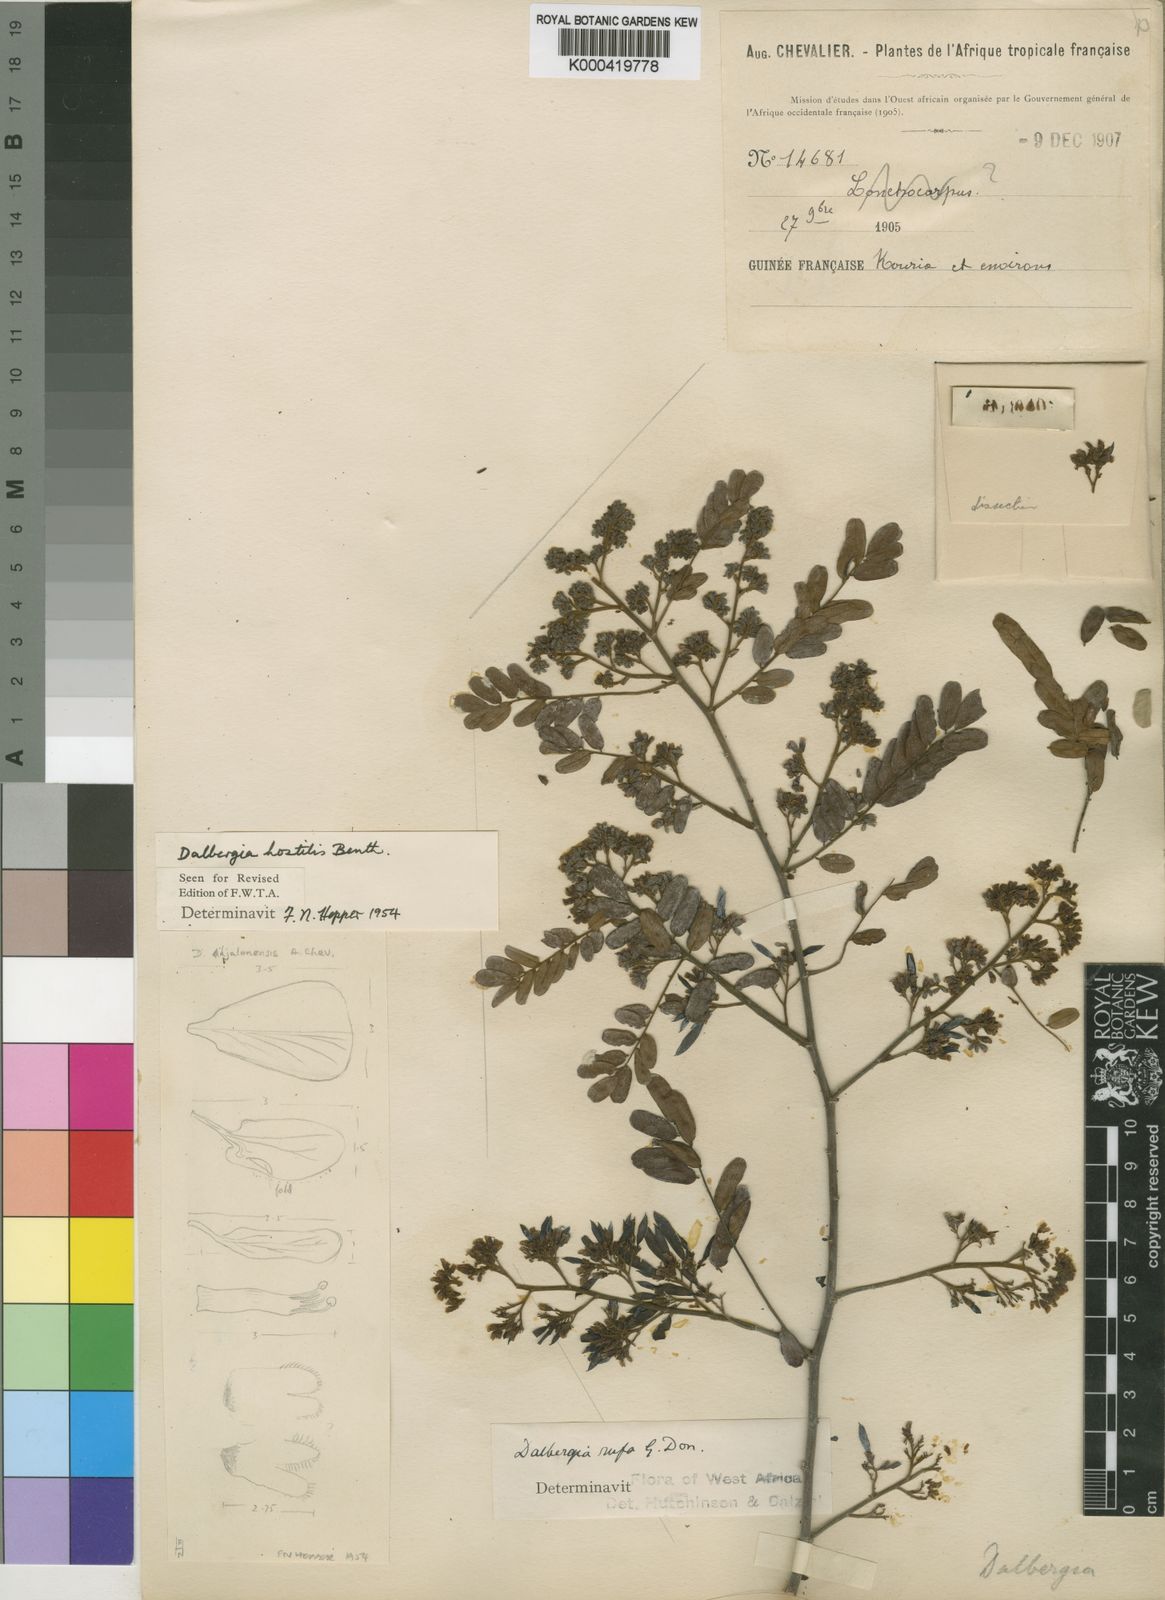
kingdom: Plantae
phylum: Tracheophyta
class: Magnoliopsida
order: Fabales
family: Fabaceae
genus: Dalbergia
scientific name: Dalbergia hostilis
